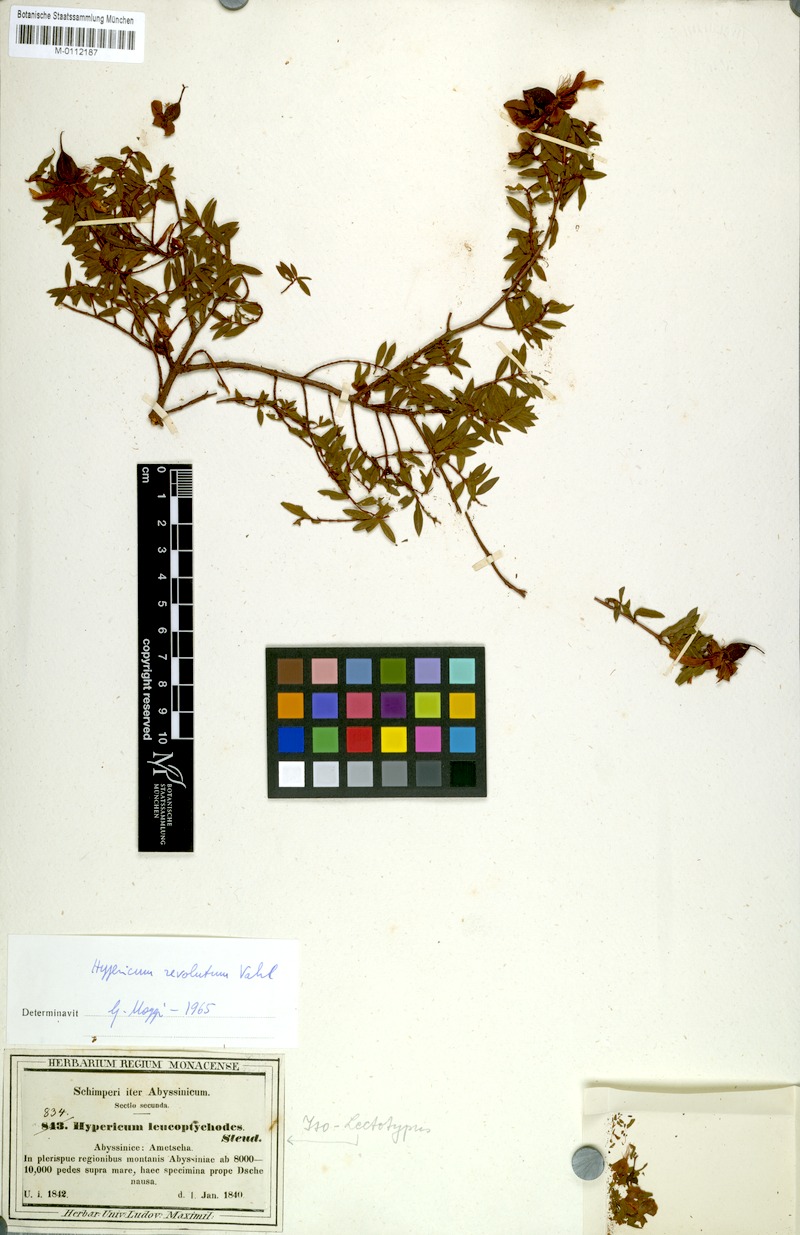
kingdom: Plantae
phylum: Tracheophyta
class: Magnoliopsida
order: Malpighiales
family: Hypericaceae
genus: Hypericum
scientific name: Hypericum revolutum
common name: Curry bush
